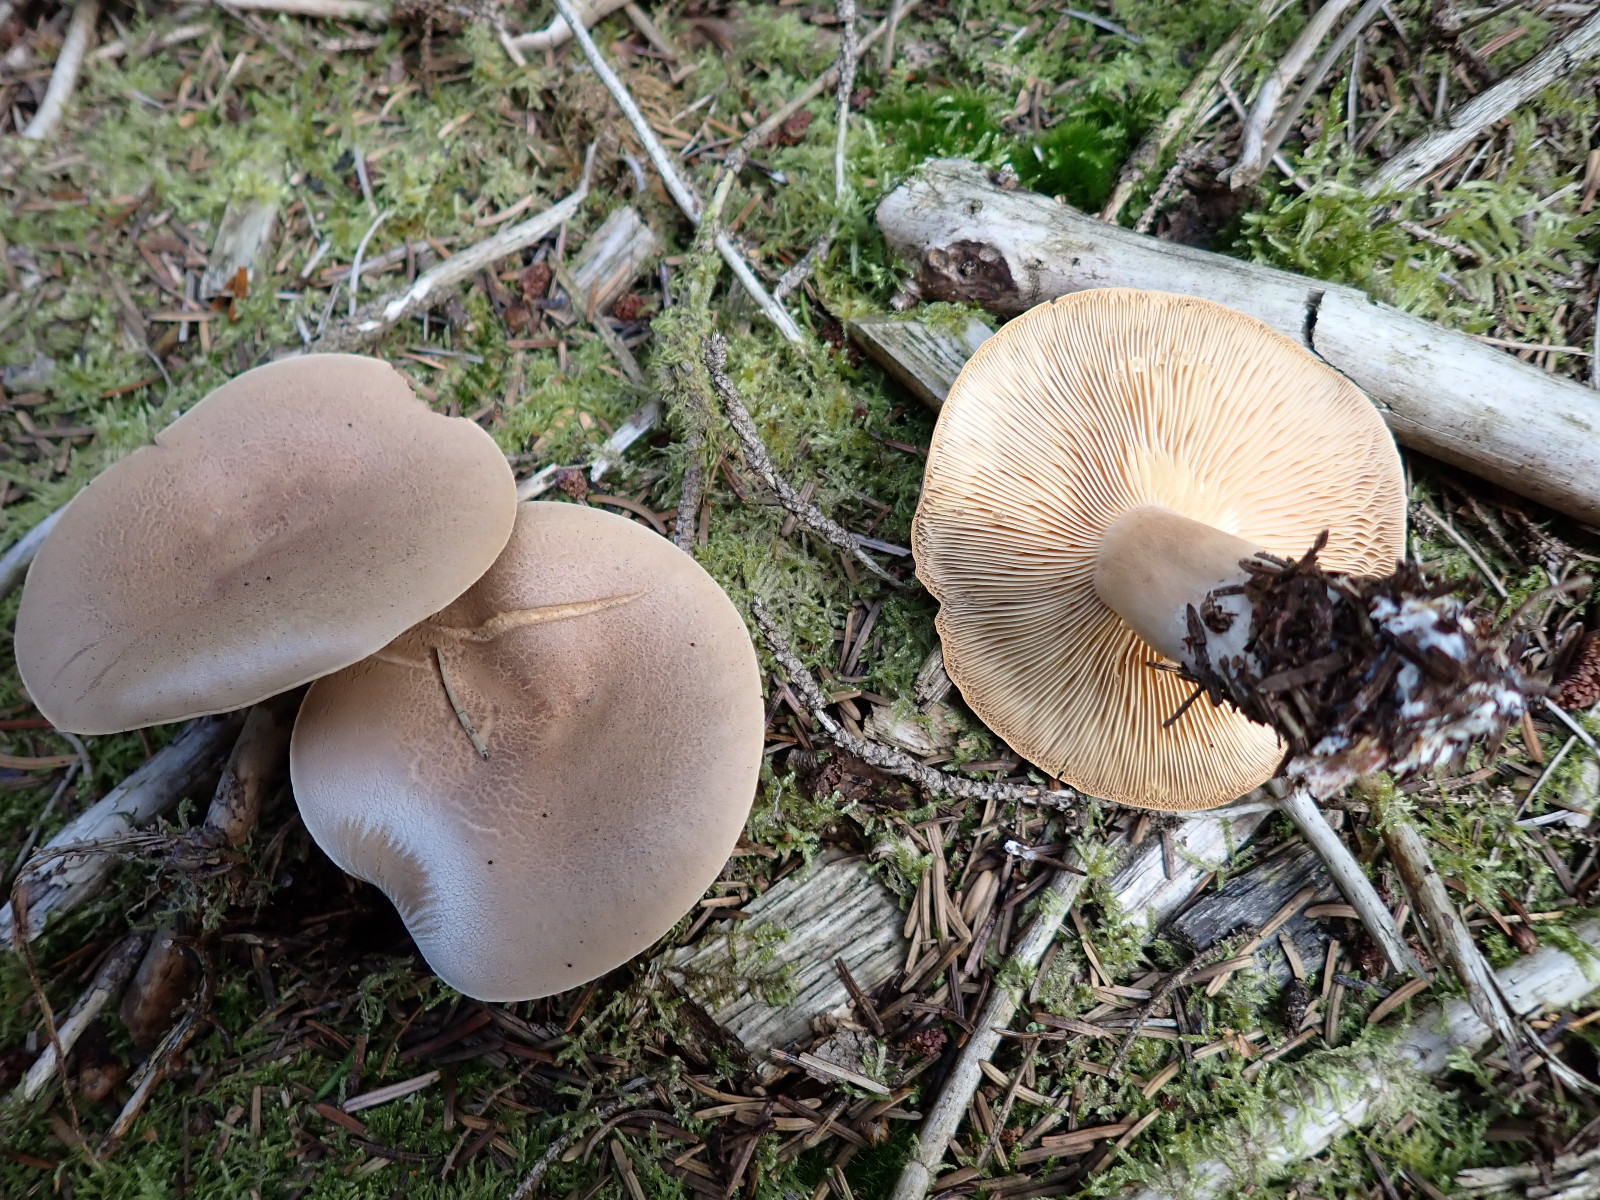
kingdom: Fungi
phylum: Basidiomycota
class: Agaricomycetes
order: Russulales
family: Russulaceae
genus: Lactarius
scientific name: Lactarius helvus
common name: mose-mælkehat
